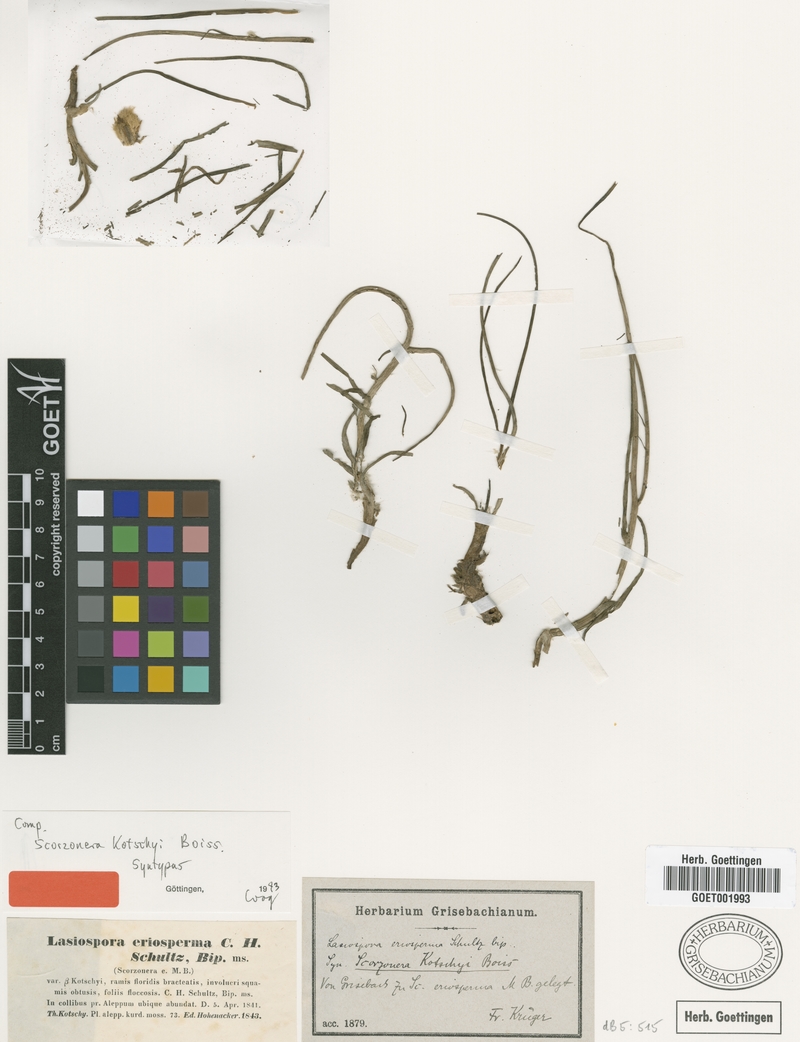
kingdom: Plantae
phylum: Tracheophyta
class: Magnoliopsida
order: Asterales
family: Asteraceae
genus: Turkia
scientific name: Turkia kotschyi
